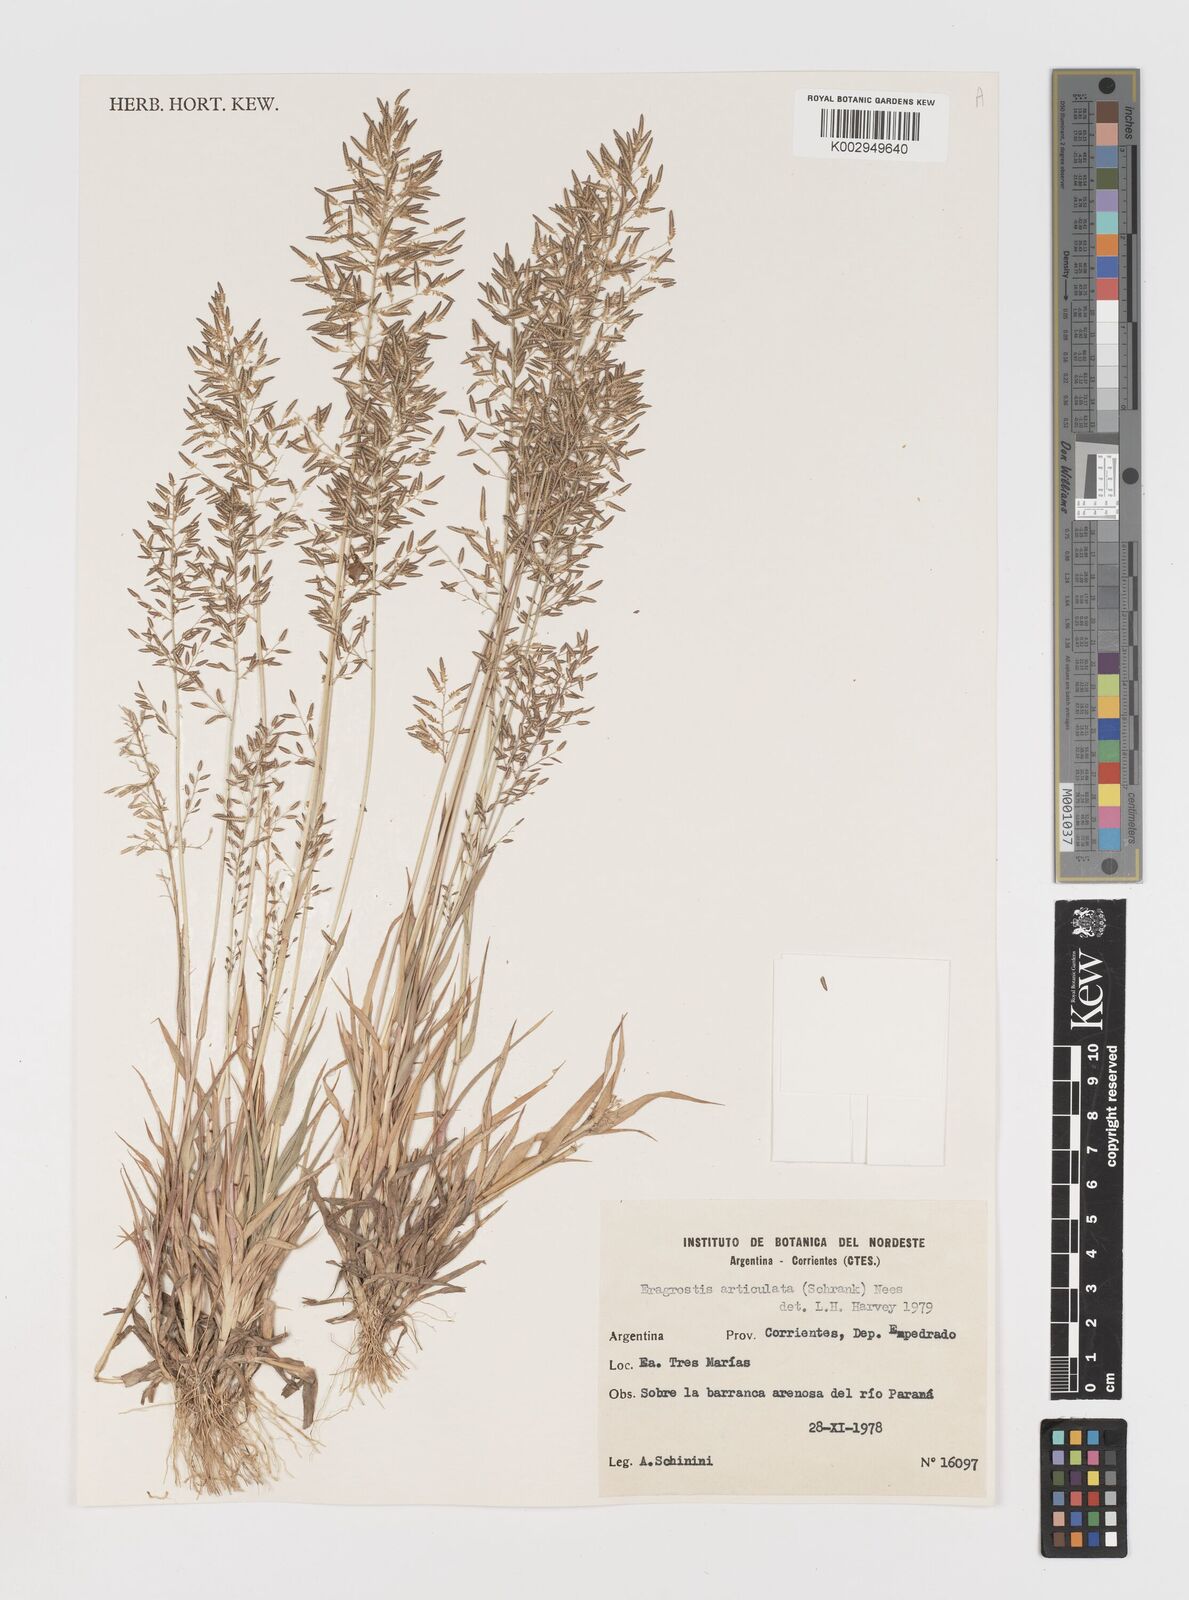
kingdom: Plantae
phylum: Tracheophyta
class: Liliopsida
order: Poales
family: Poaceae
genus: Eragrostis
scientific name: Eragrostis articulata
